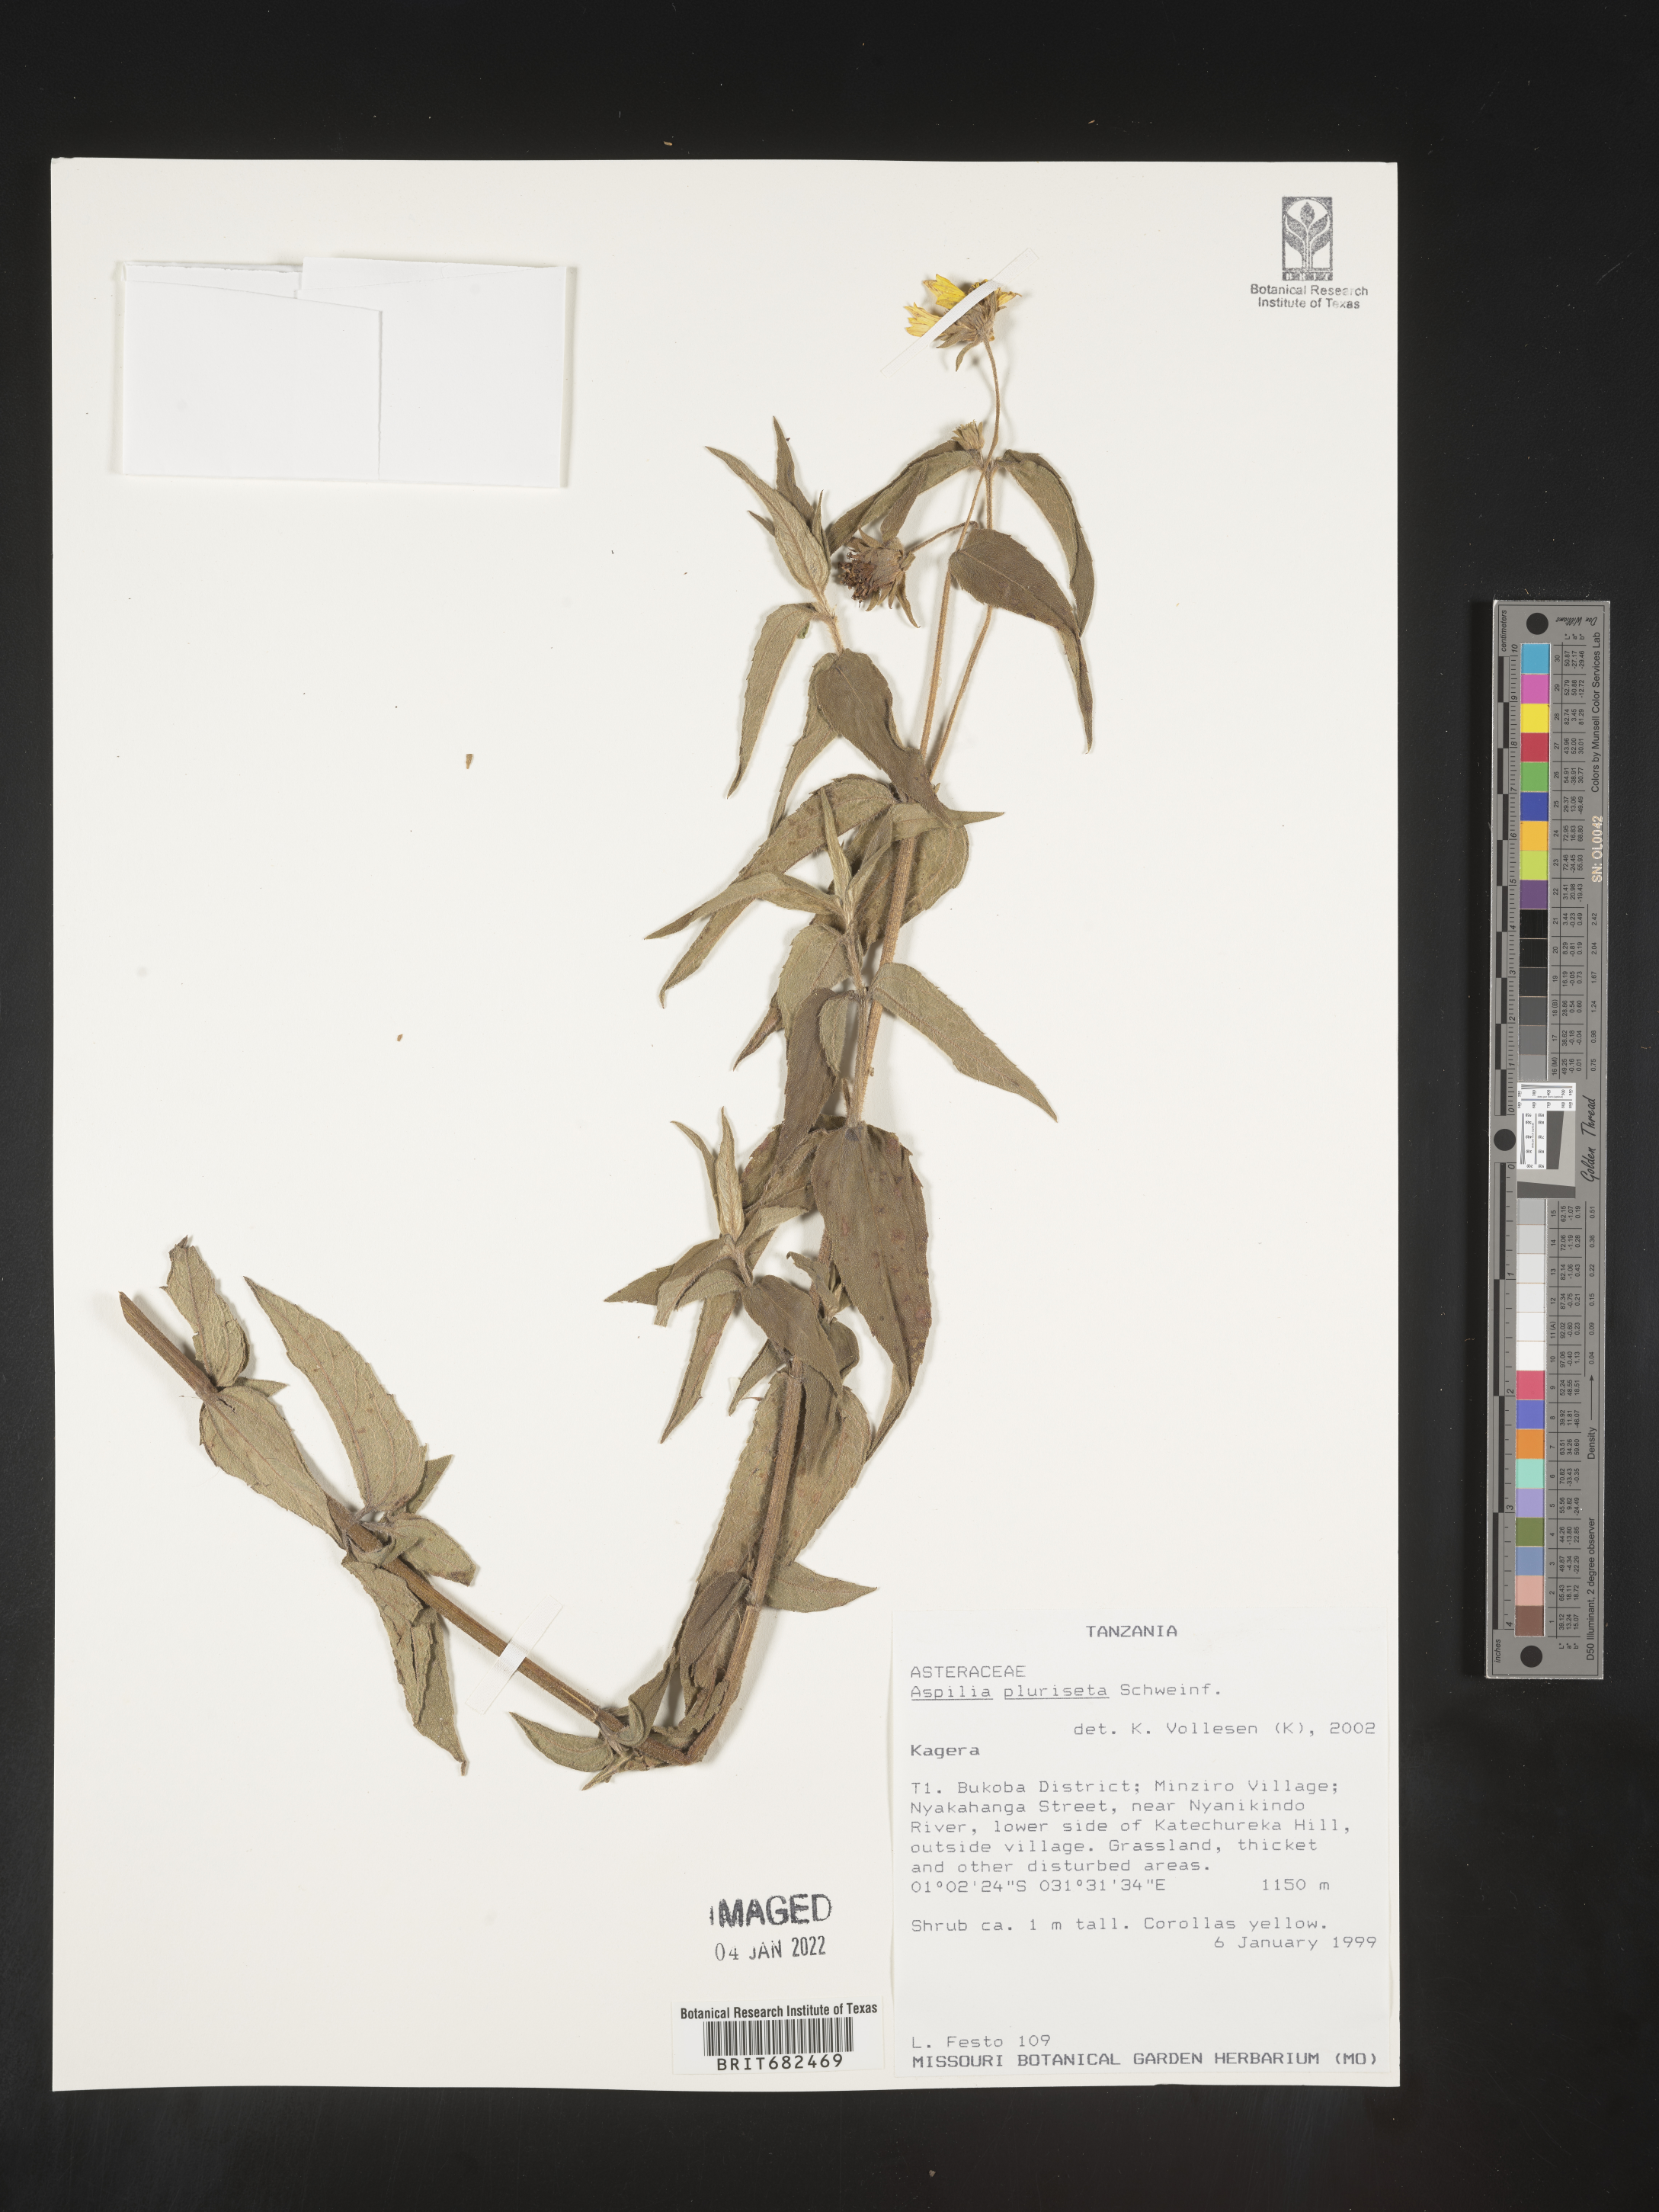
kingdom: Plantae
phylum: Tracheophyta
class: Magnoliopsida
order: Asterales
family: Asteraceae
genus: Aspilia
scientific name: Aspilia
